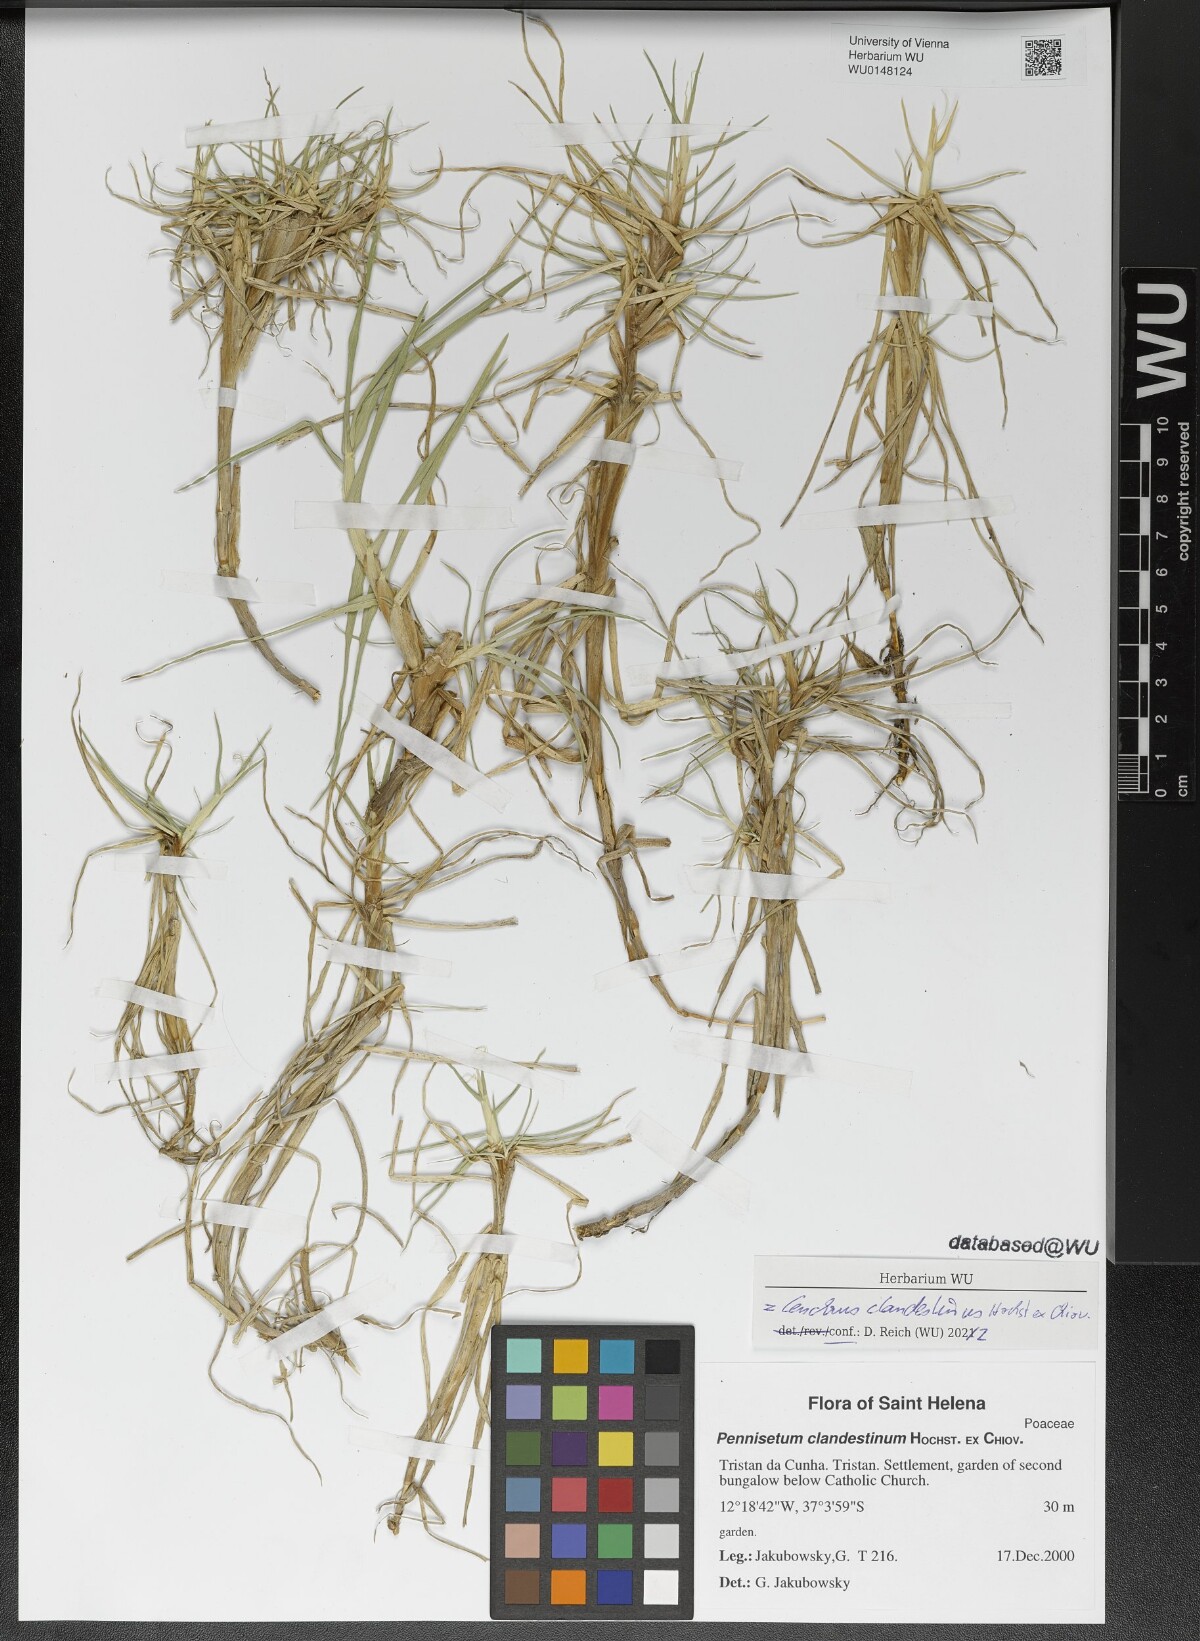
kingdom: Plantae
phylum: Tracheophyta
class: Liliopsida
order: Poales
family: Poaceae
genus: Cenchrus
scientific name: Cenchrus clandestinus
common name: Kikuyugrass
